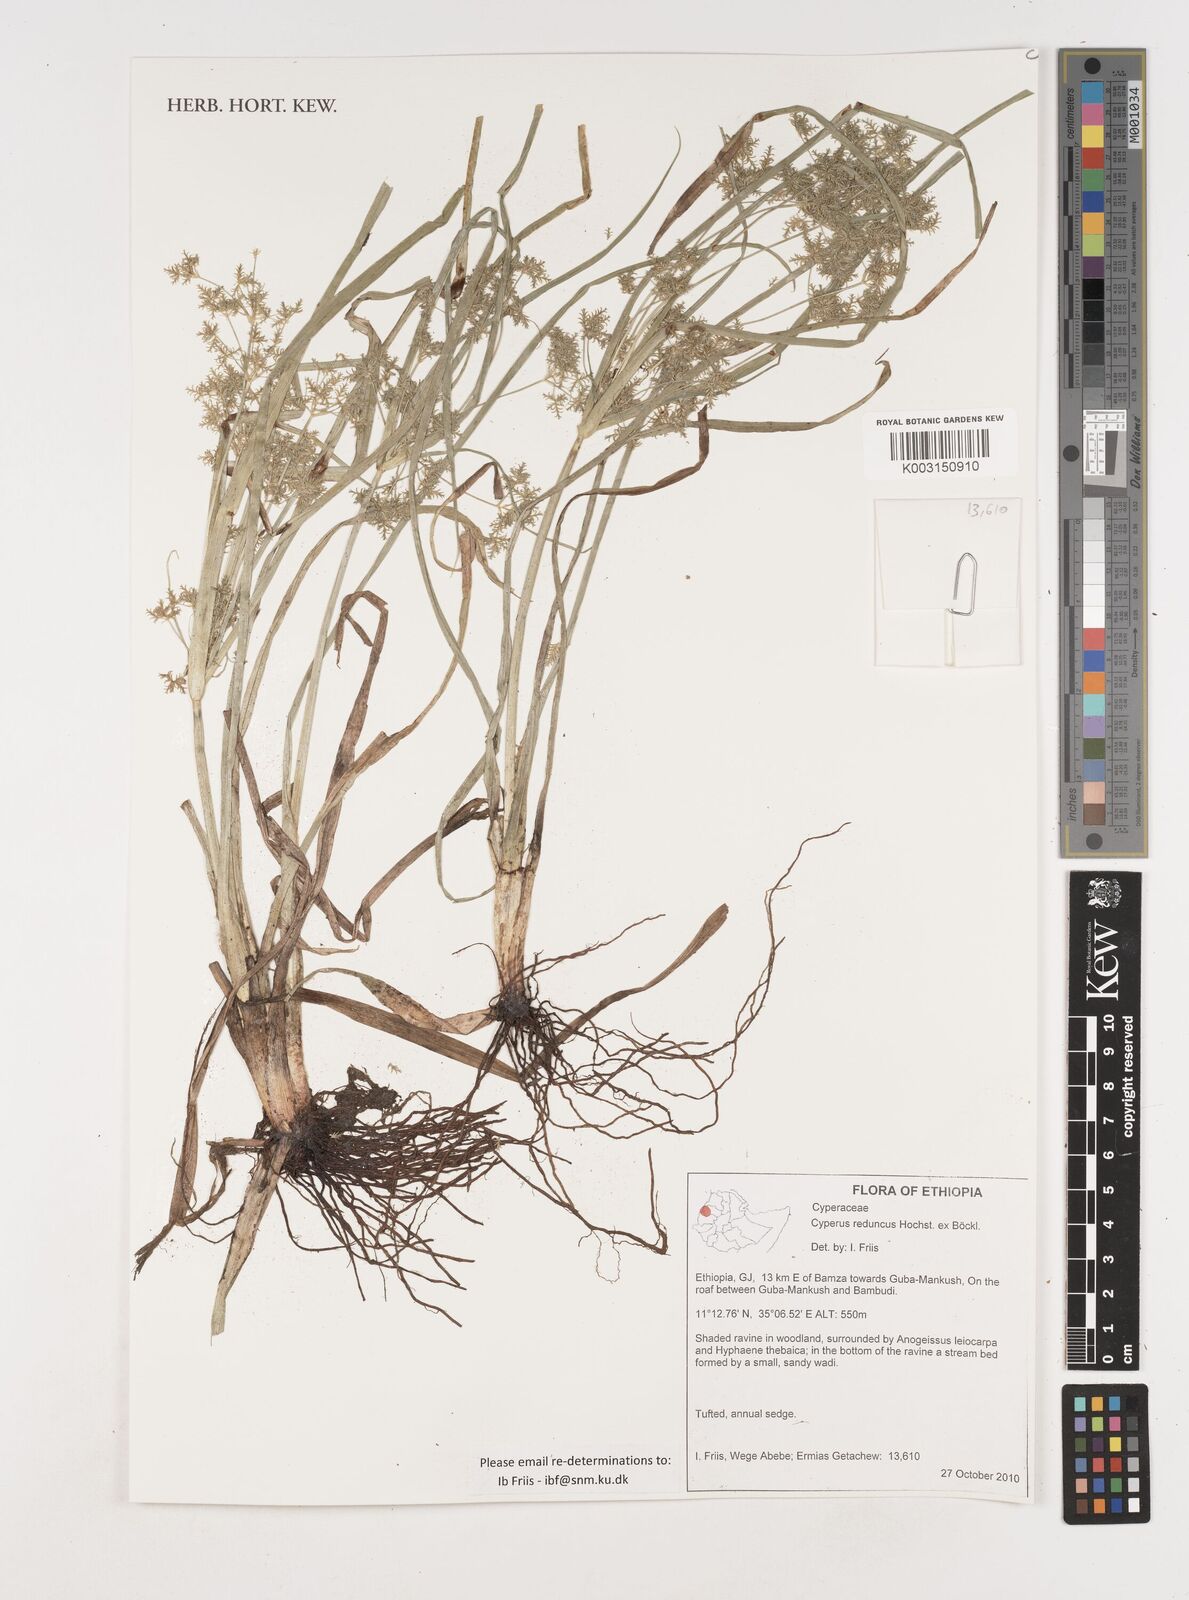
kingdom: Plantae
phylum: Tracheophyta
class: Liliopsida
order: Poales
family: Cyperaceae
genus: Cyperus
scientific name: Cyperus reduncus
